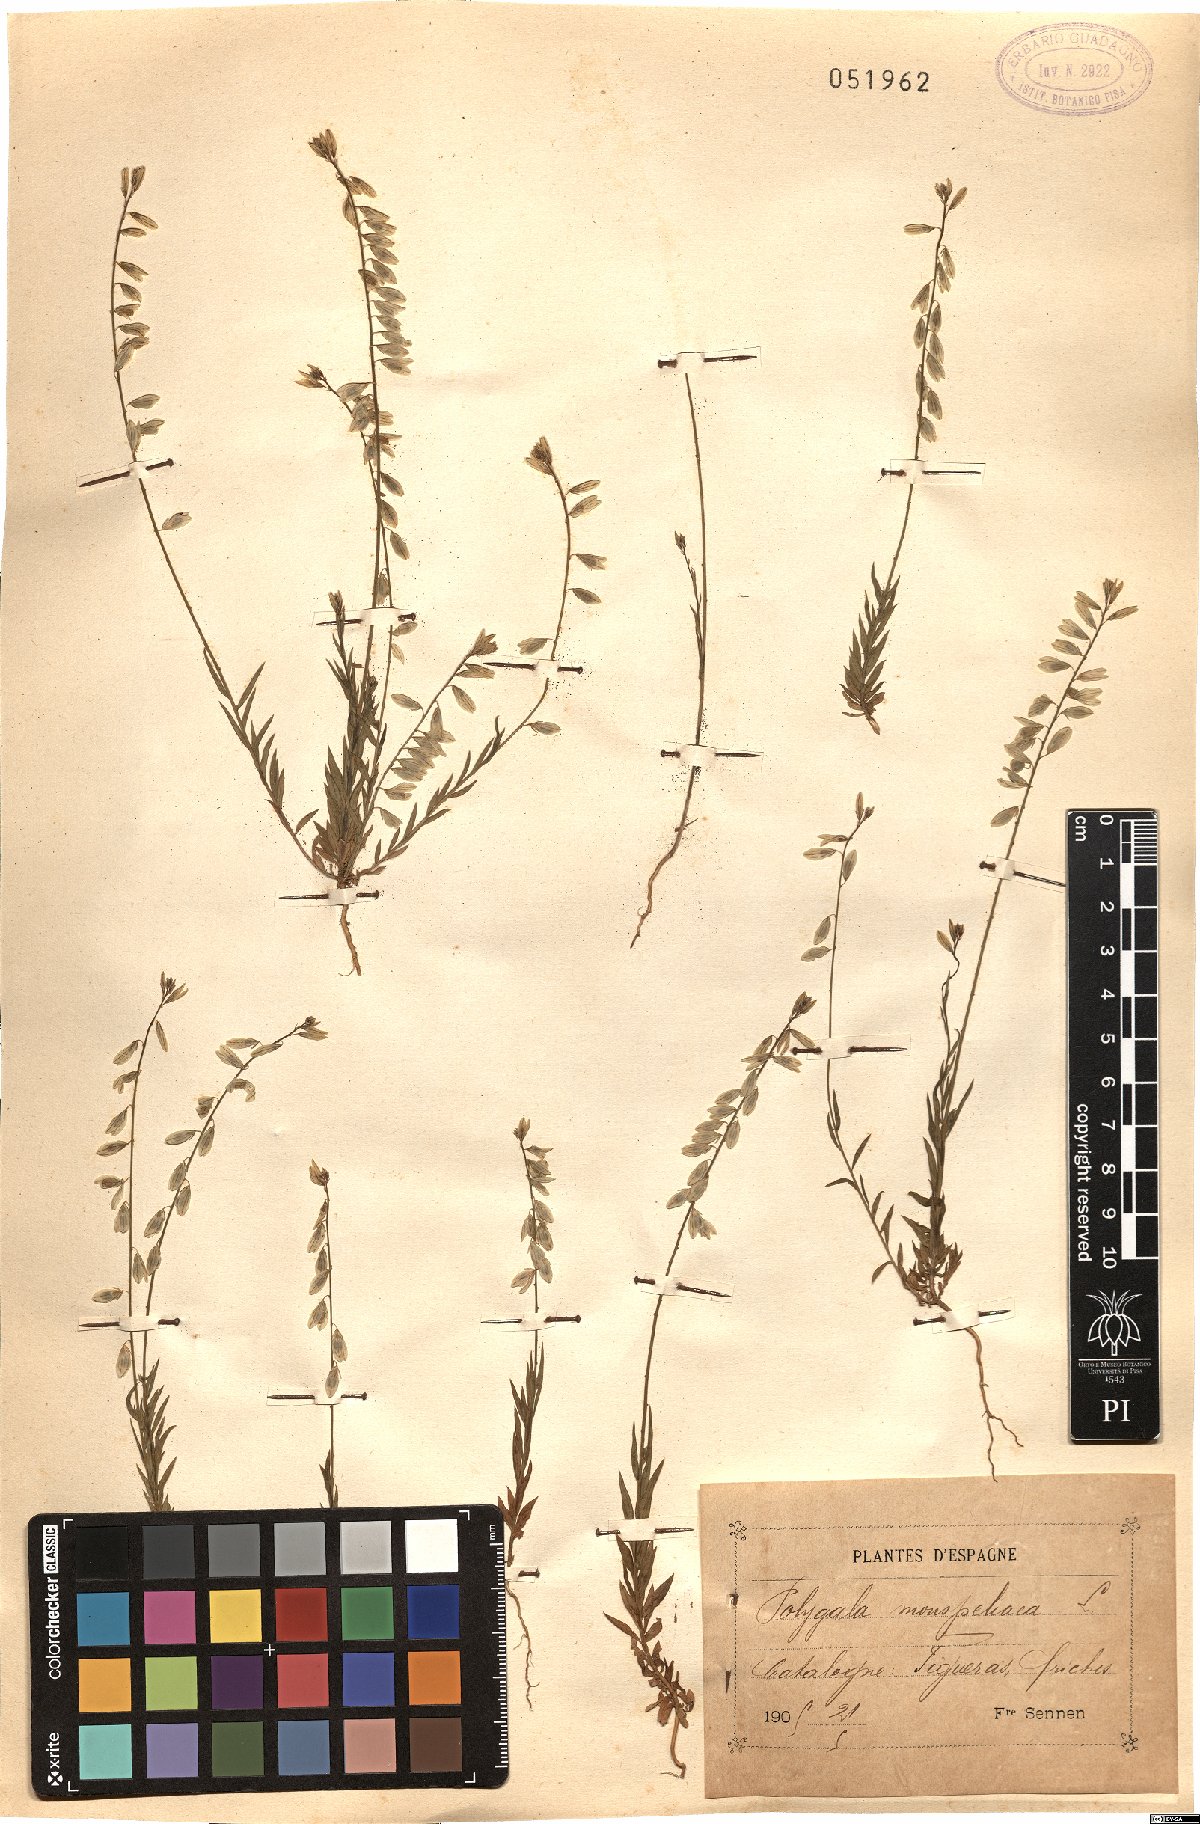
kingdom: Plantae
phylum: Tracheophyta
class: Magnoliopsida
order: Fabales
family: Polygalaceae
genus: Polygala
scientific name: Polygala monspeliaca
